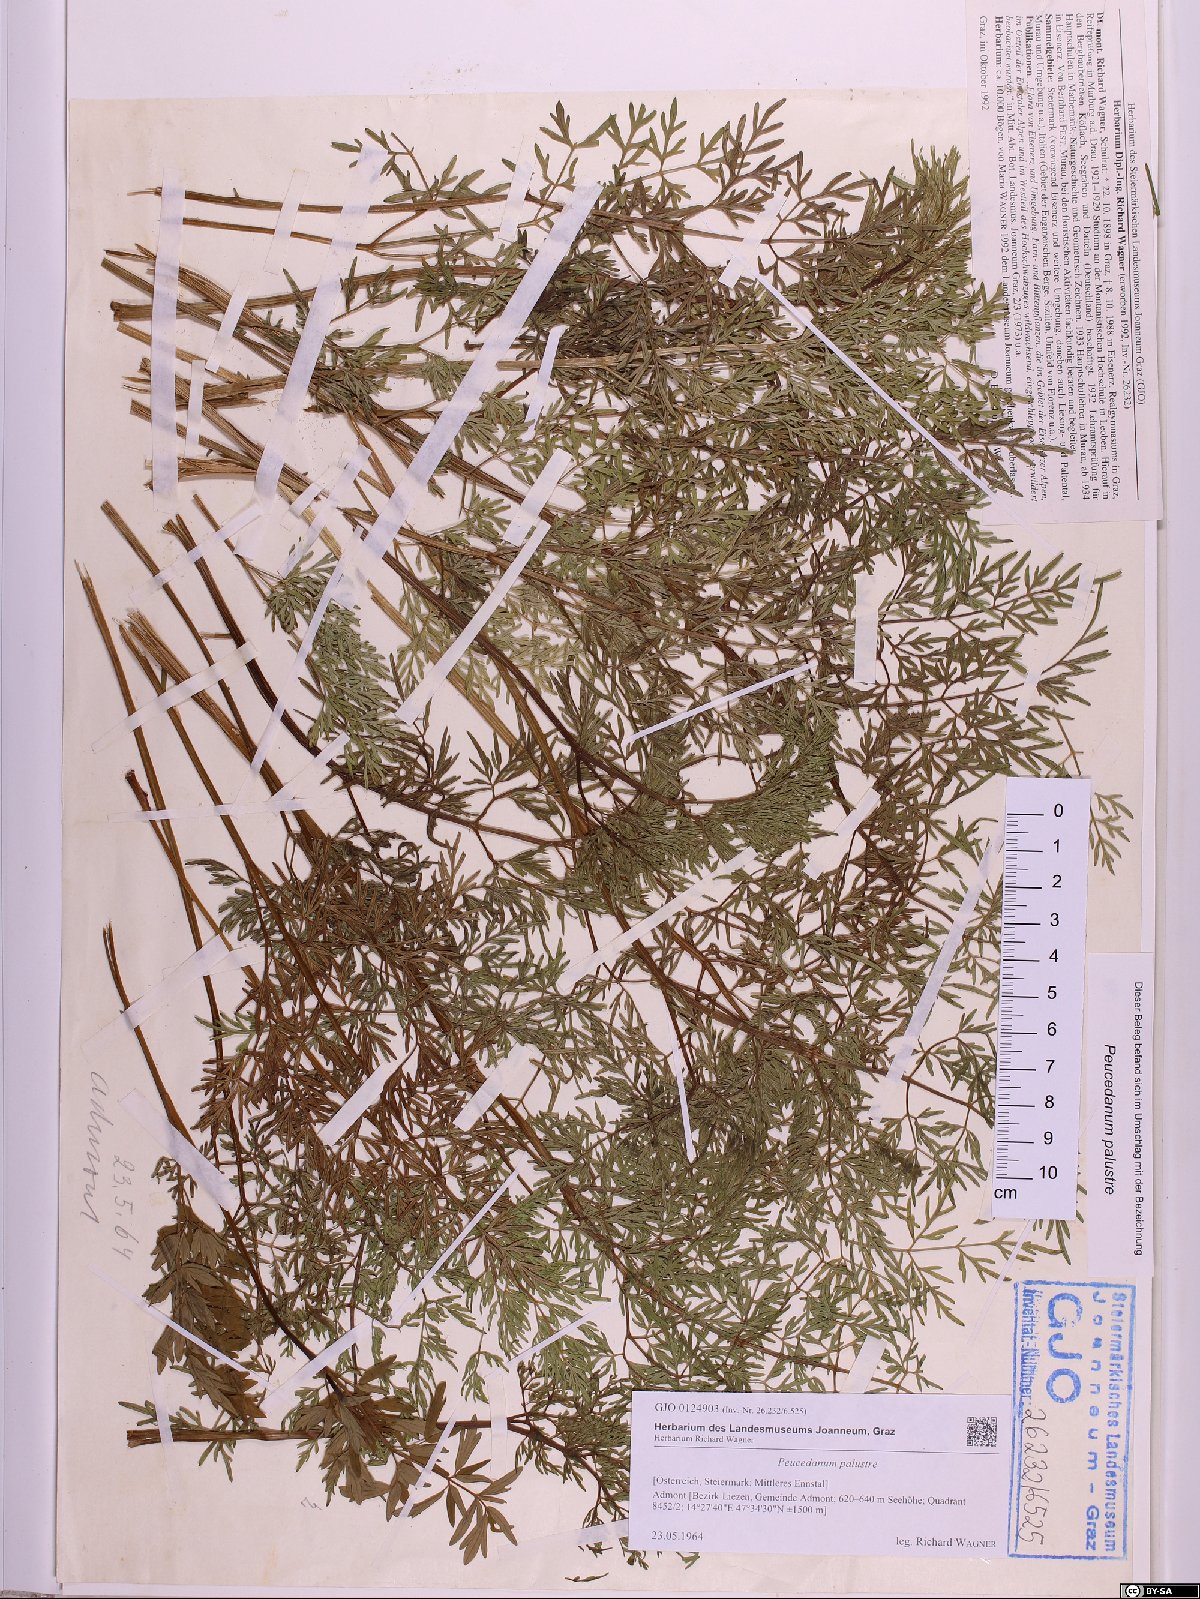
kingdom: Plantae
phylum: Tracheophyta
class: Magnoliopsida
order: Apiales
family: Apiaceae
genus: Thysselinum
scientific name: Thysselinum palustre
